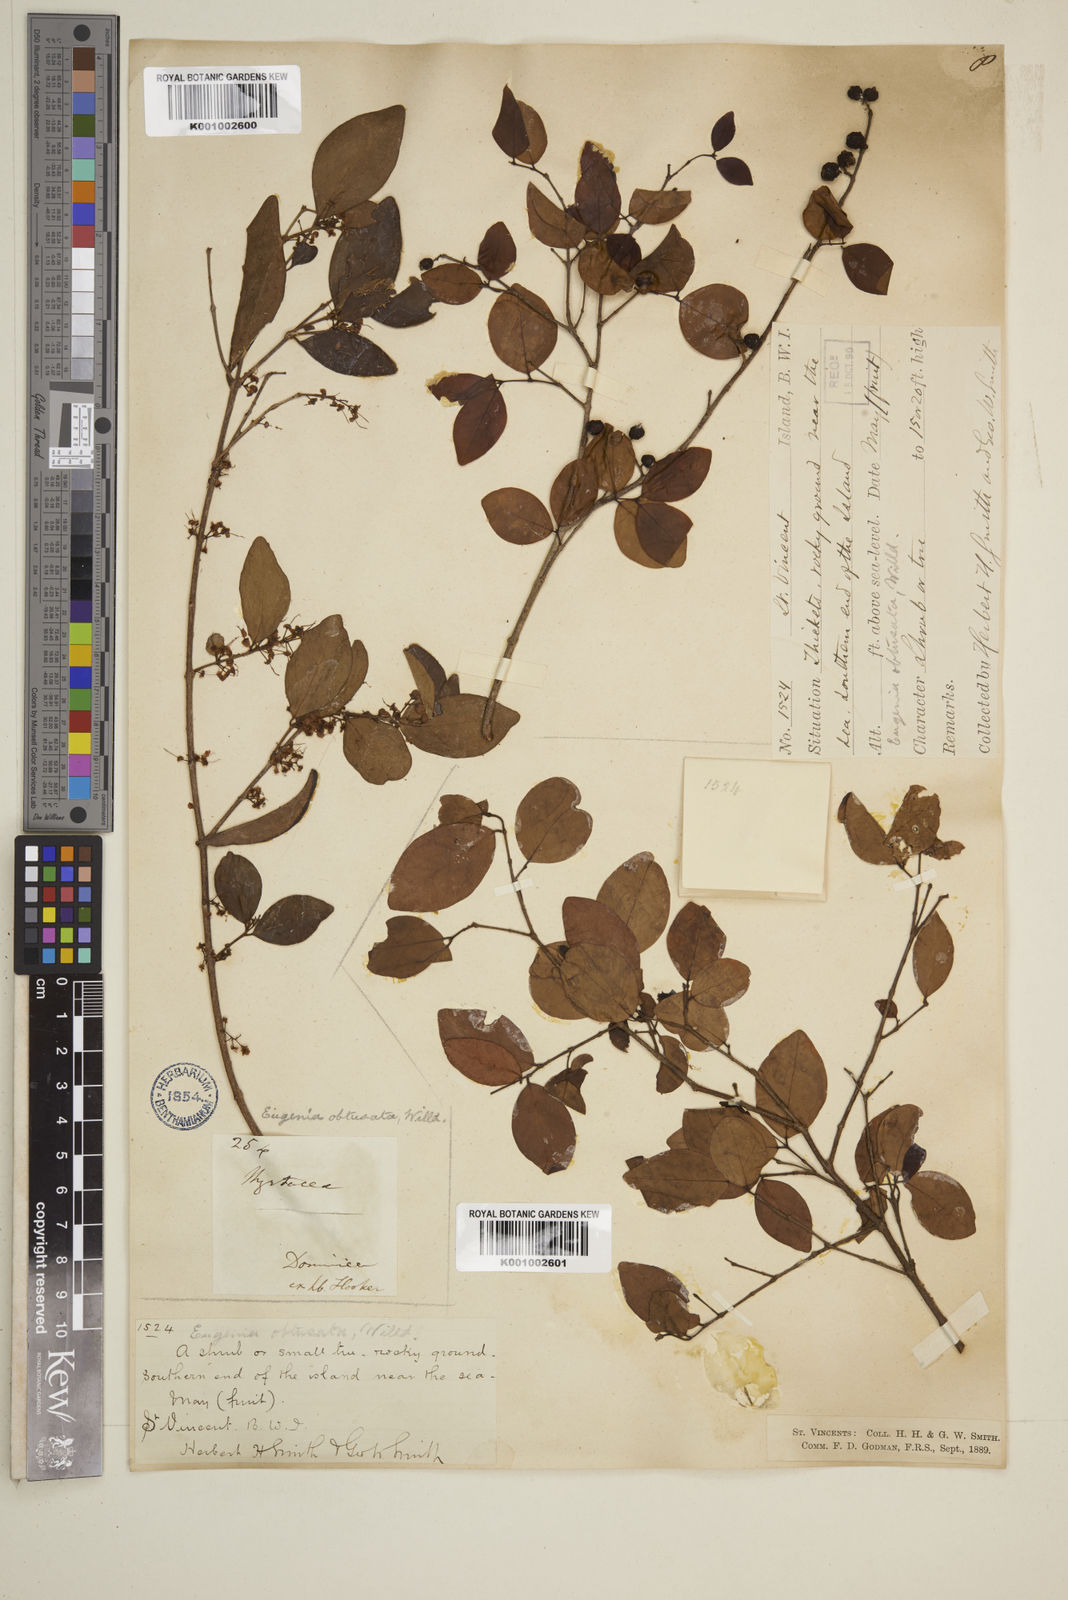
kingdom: Plantae
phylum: Tracheophyta
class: Magnoliopsida
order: Myrtales
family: Myrtaceae
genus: Eugenia
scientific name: Eugenia monticola
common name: Birds berry
